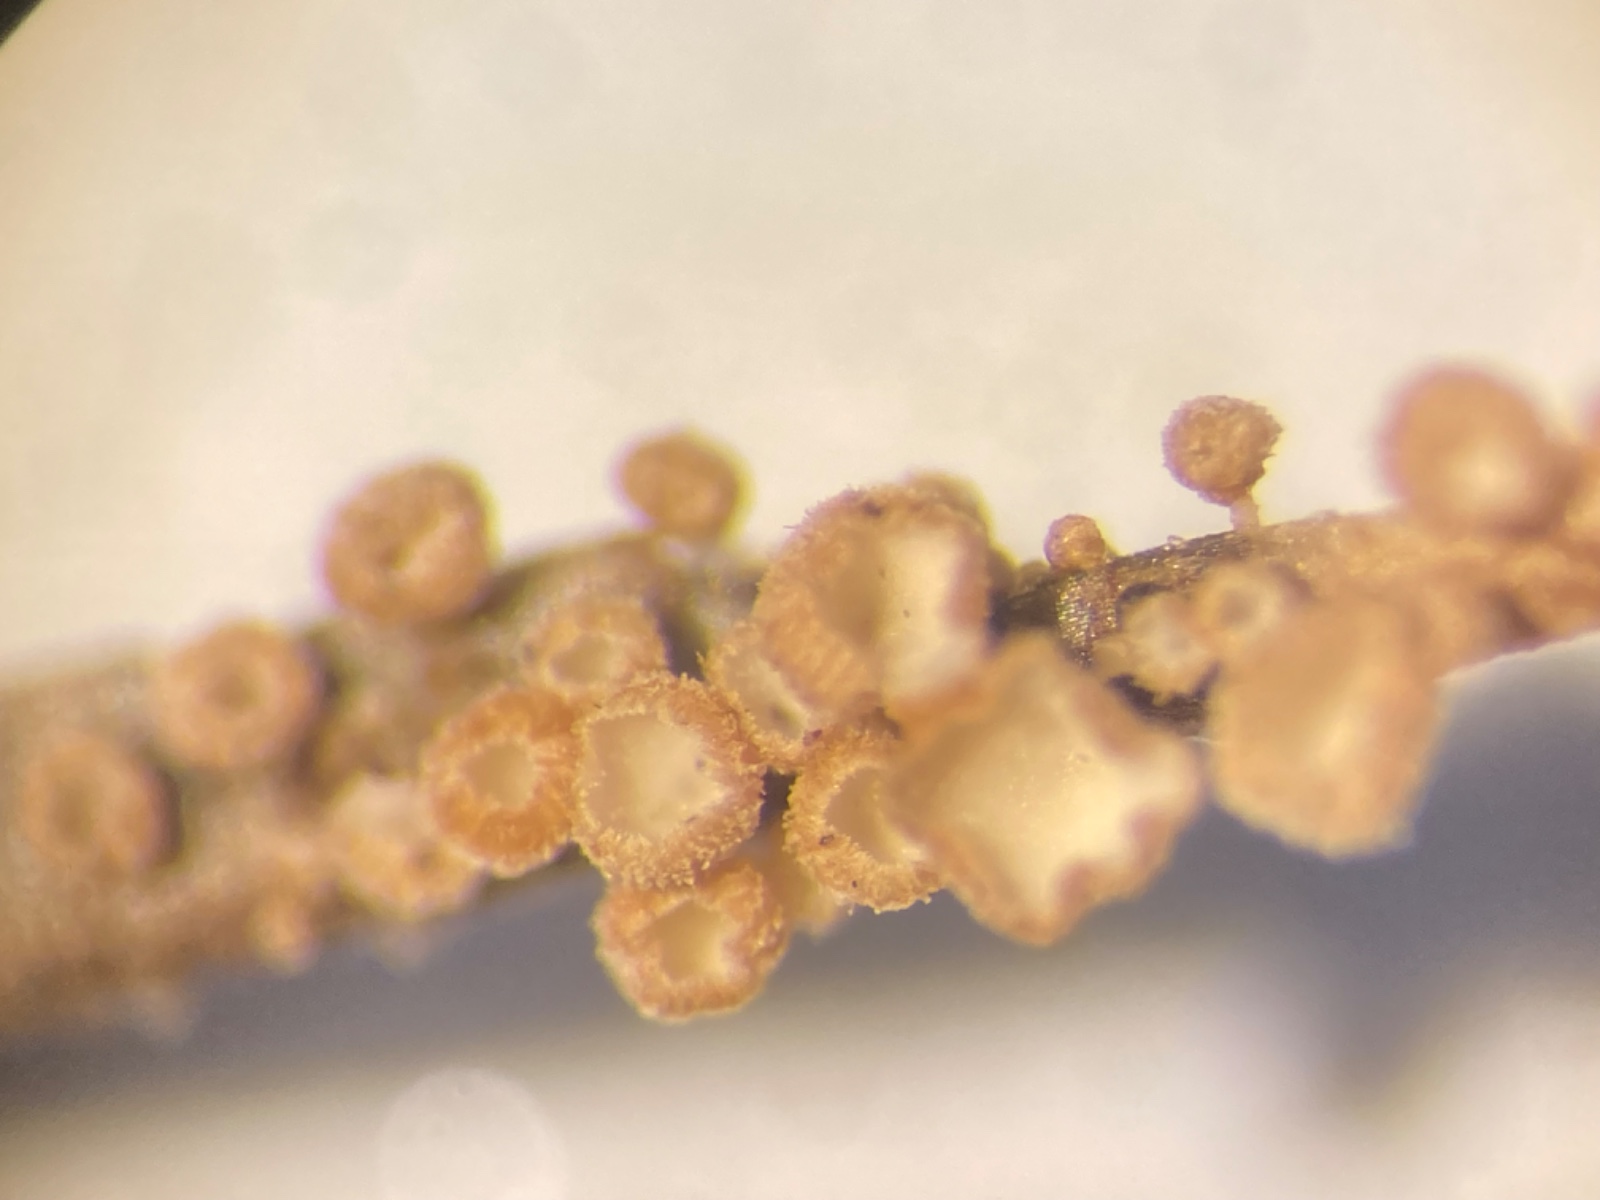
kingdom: Fungi
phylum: Basidiomycota
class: Agaricomycetes
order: Agaricales
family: Niaceae
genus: Merismodes
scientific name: Merismodes
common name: mjødurt-læderskål
